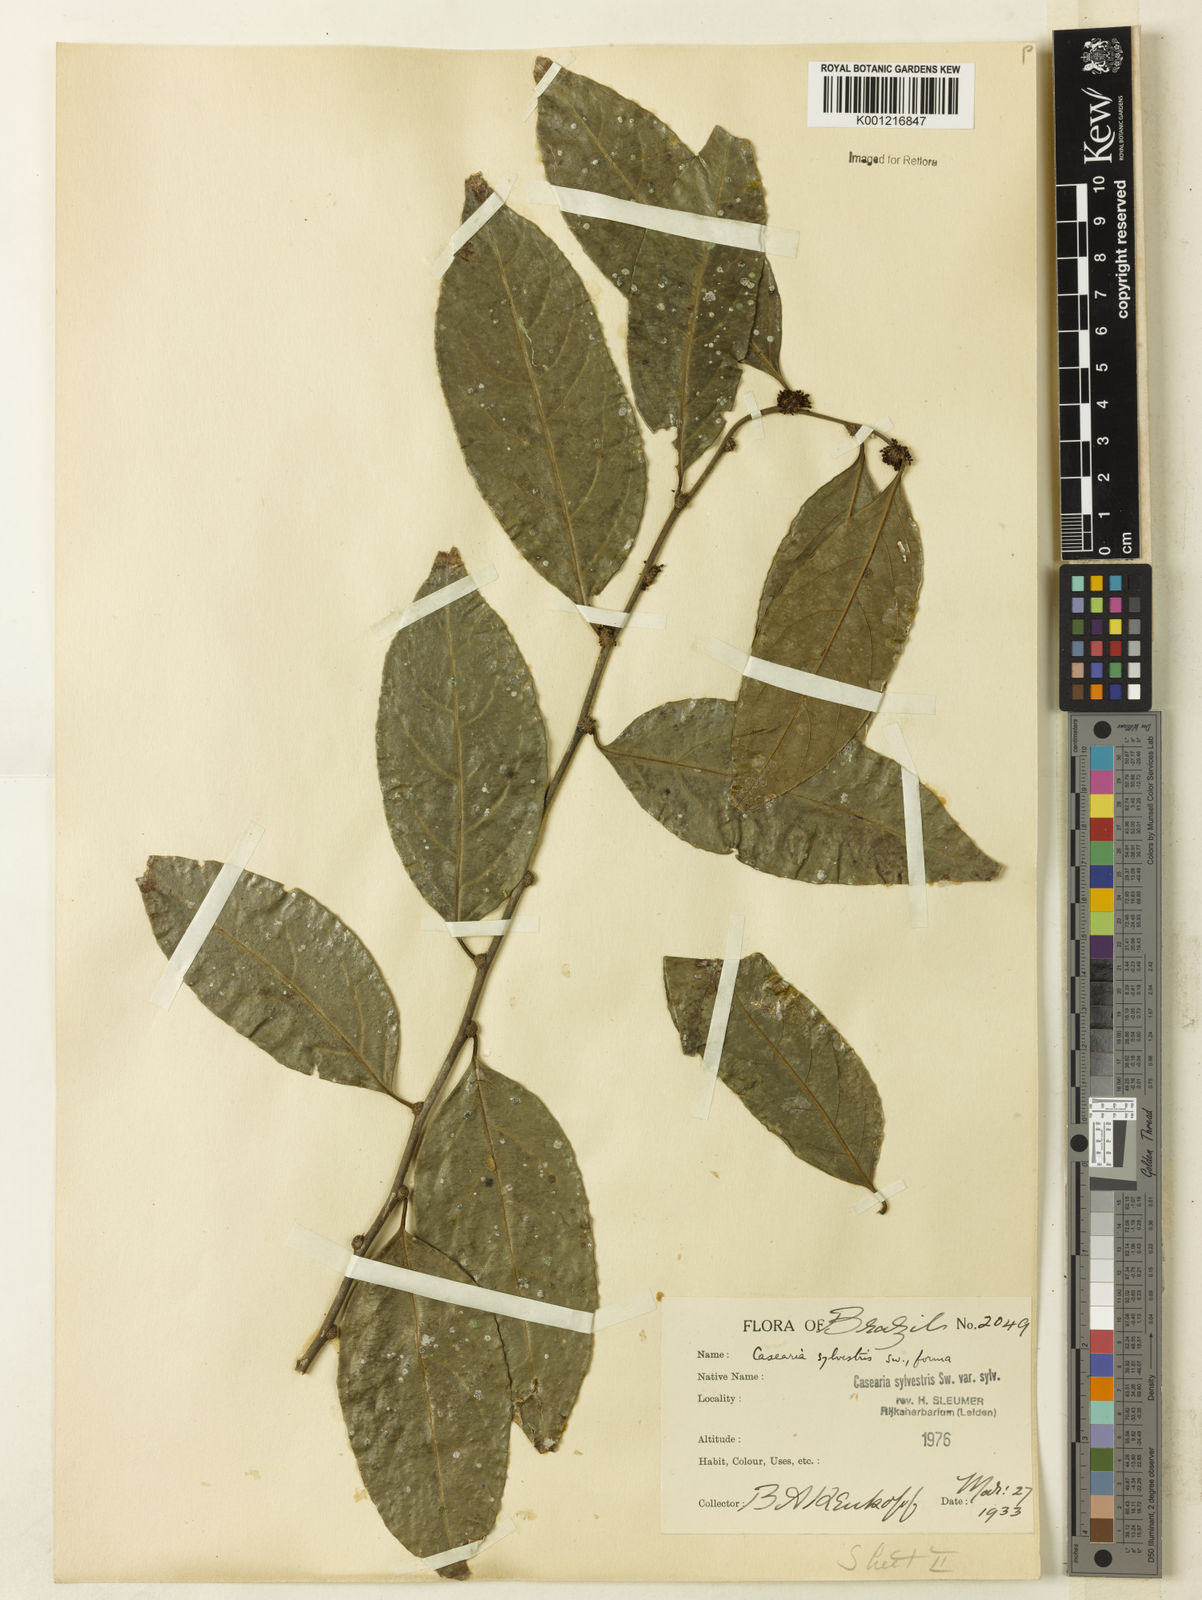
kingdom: Plantae
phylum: Tracheophyta
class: Magnoliopsida
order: Malpighiales
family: Salicaceae
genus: Casearia
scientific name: Casearia sylvestris
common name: Wild sage
